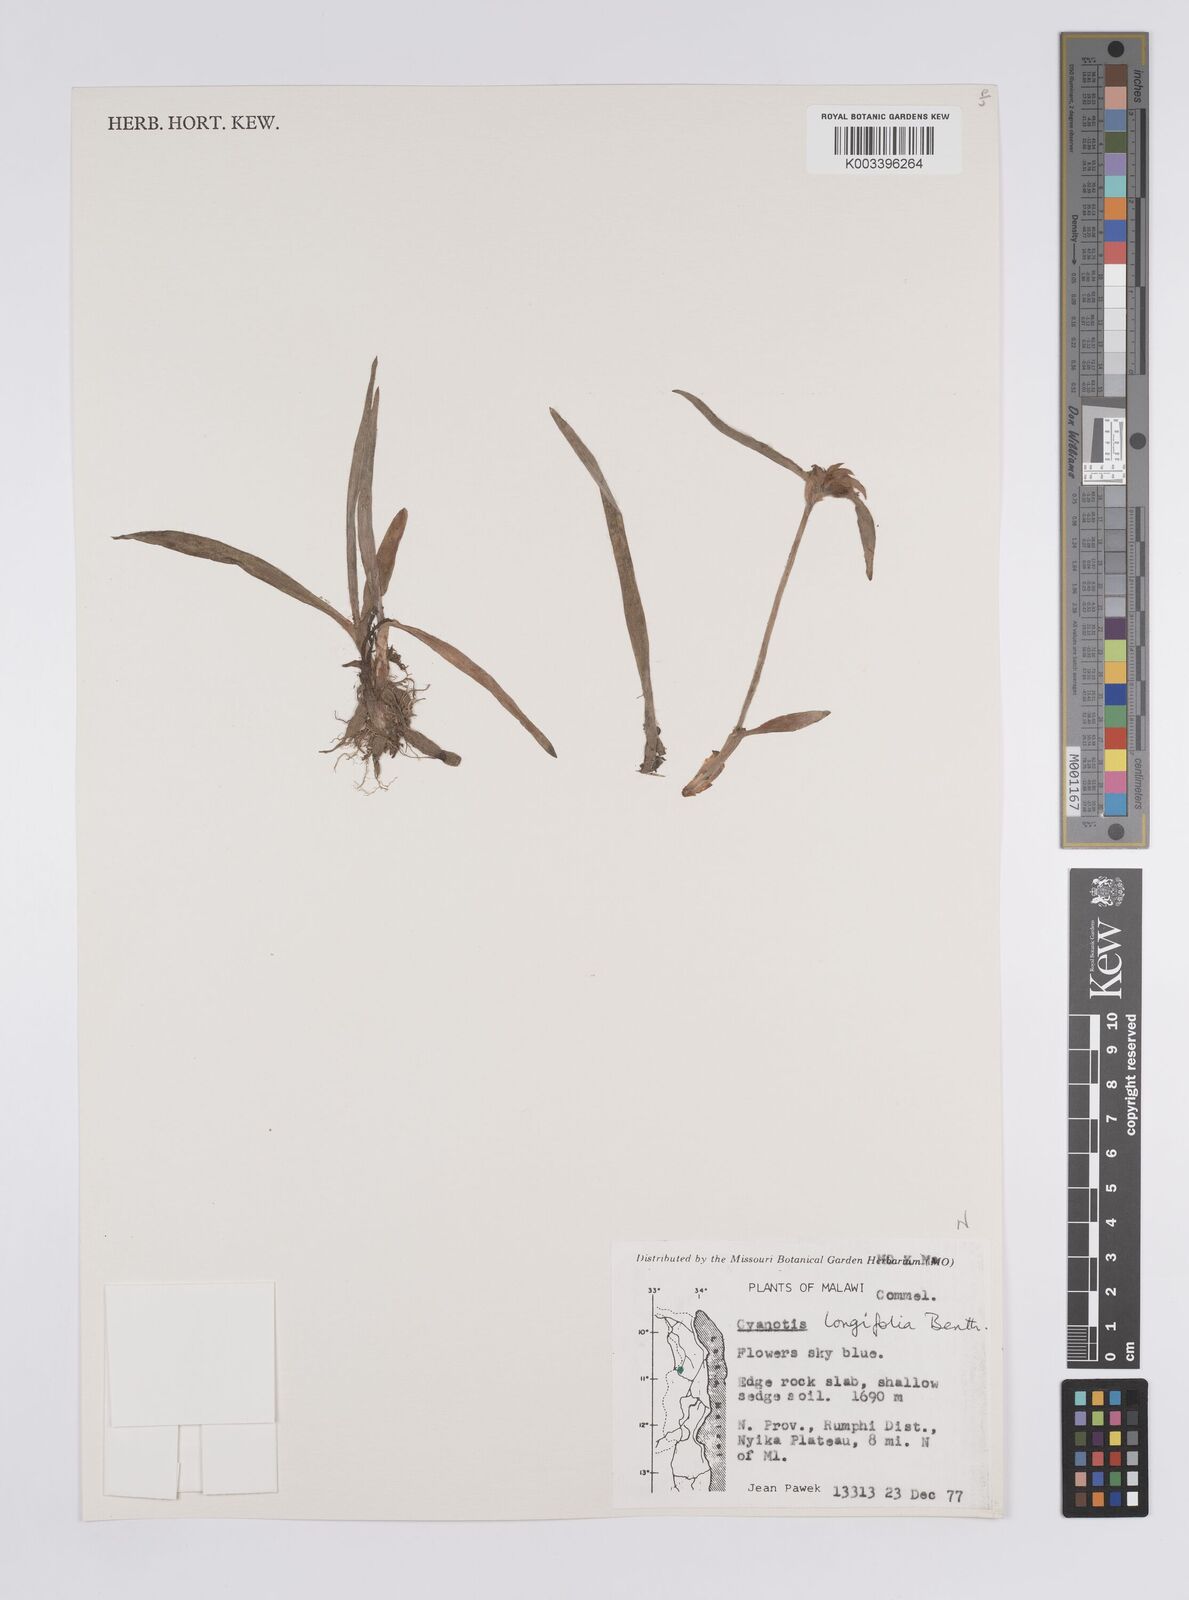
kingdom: Plantae
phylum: Tracheophyta
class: Liliopsida
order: Commelinales
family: Commelinaceae
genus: Cyanotis
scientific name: Cyanotis longifolia
